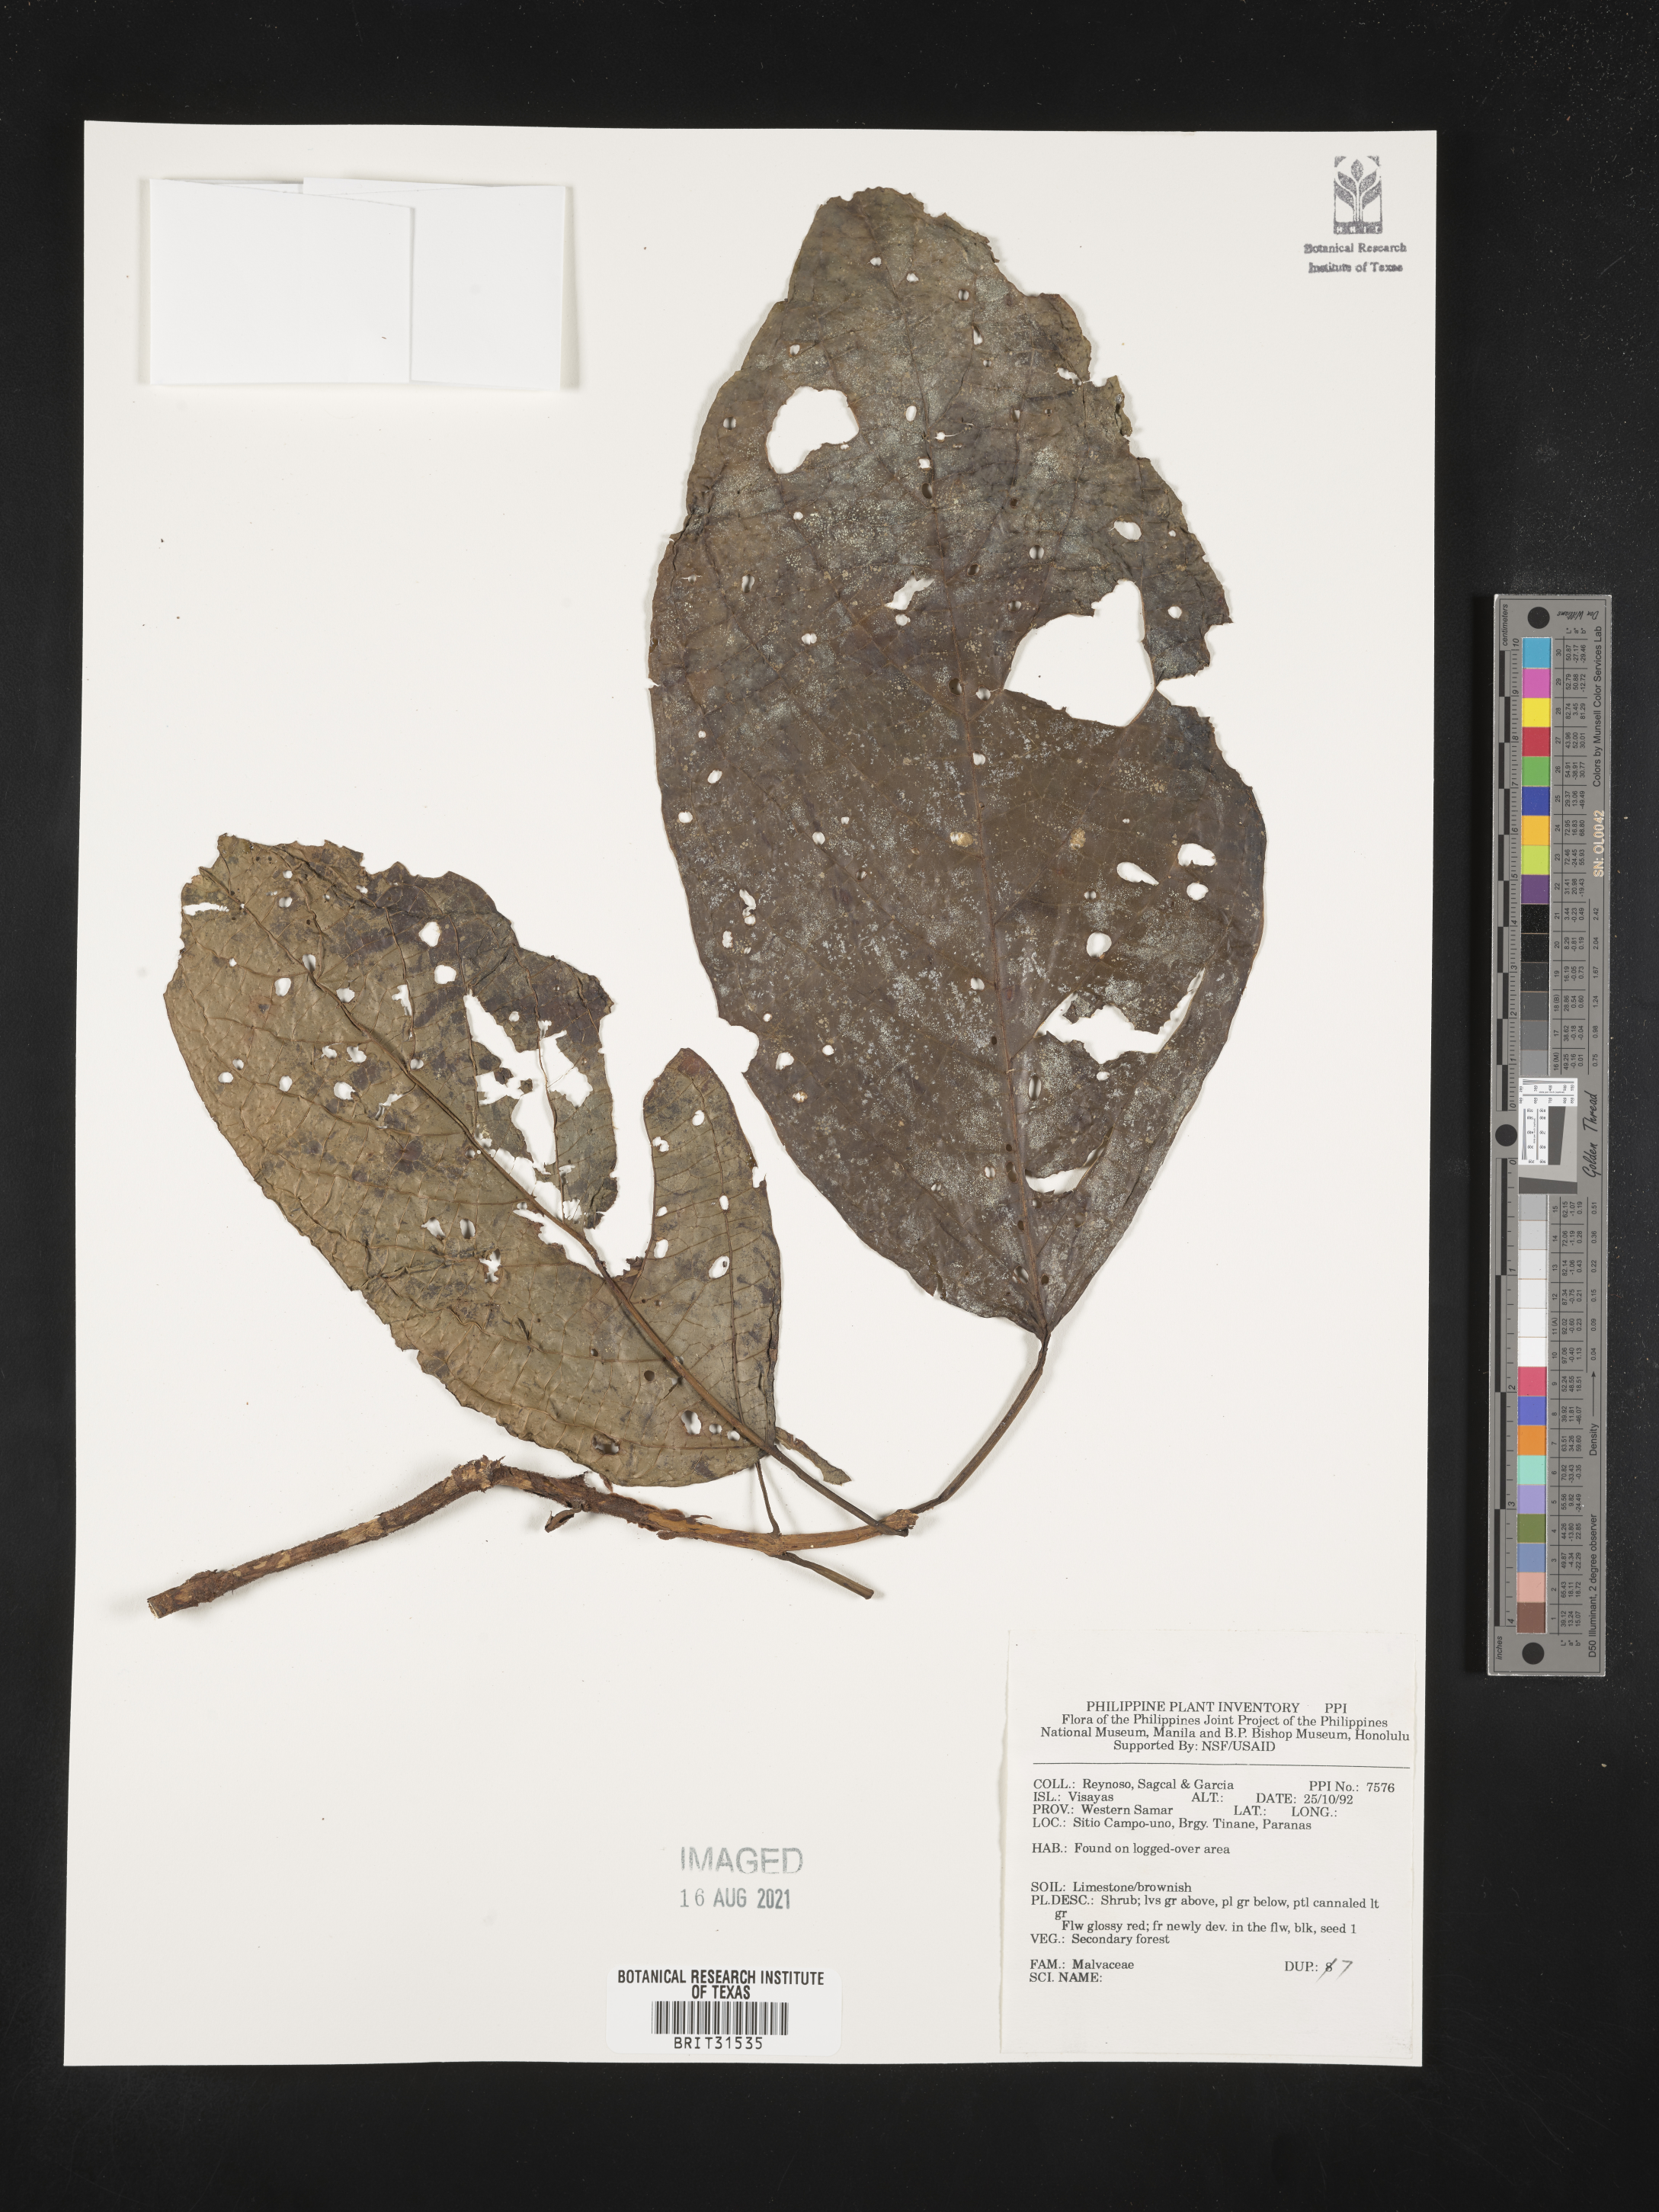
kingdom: Plantae
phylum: Tracheophyta
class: Magnoliopsida
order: Malvales
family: Malvaceae
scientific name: Malvaceae
